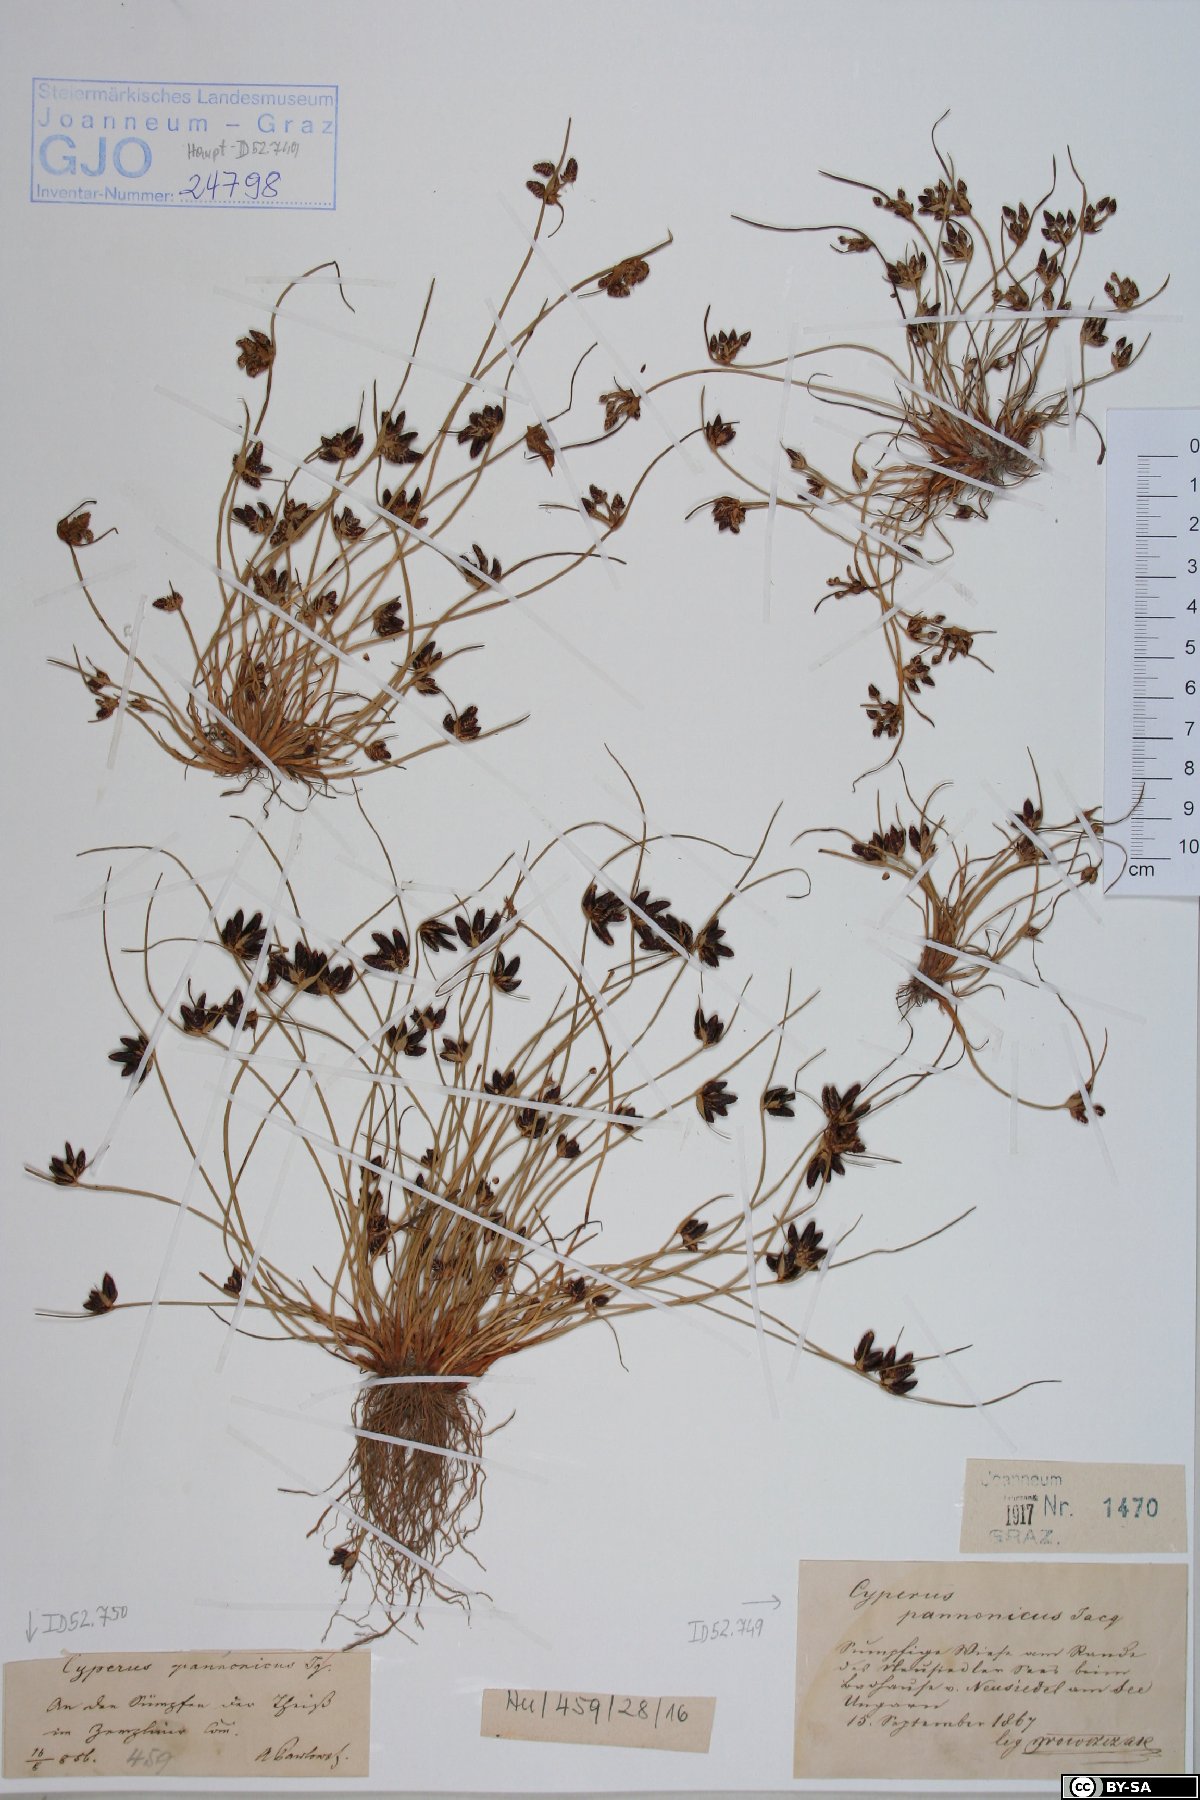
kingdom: Plantae
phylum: Tracheophyta
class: Liliopsida
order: Poales
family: Cyperaceae
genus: Cyperus
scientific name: Cyperus pannonicus
